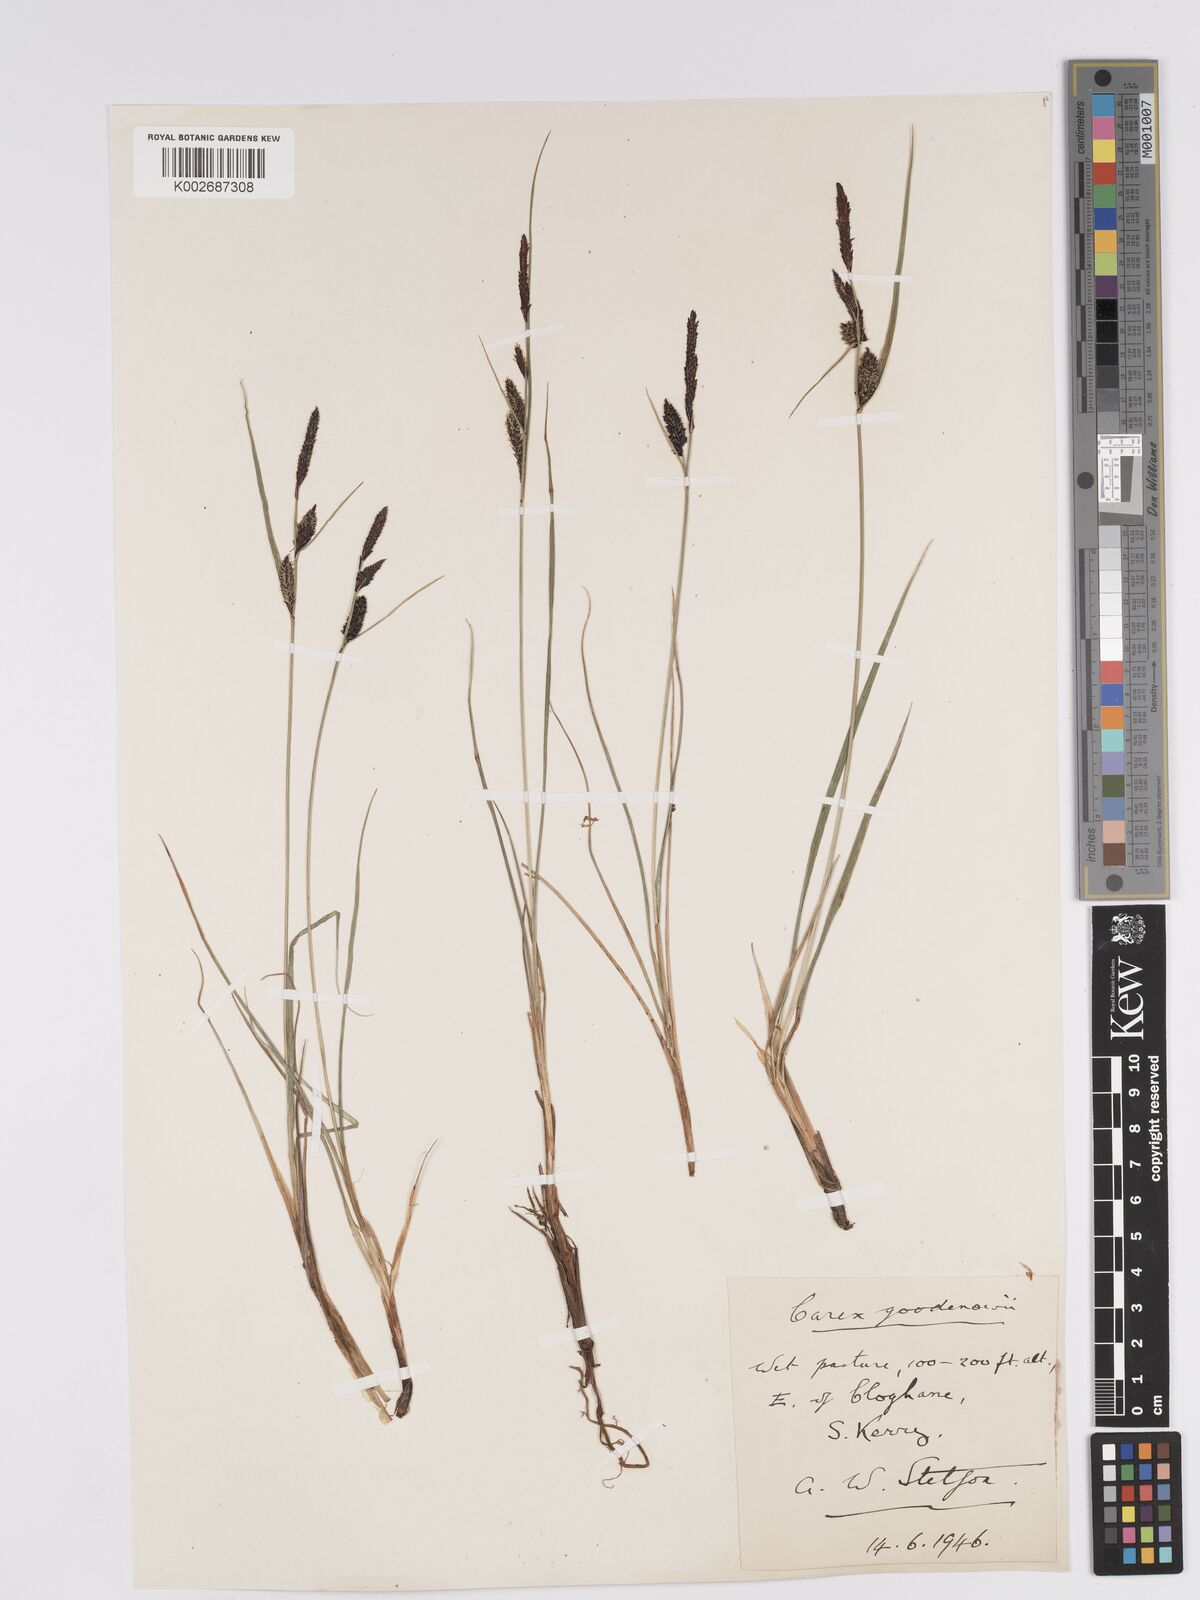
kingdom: Plantae
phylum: Tracheophyta
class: Liliopsida
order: Poales
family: Cyperaceae
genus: Carex
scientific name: Carex nigra
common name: Common sedge
